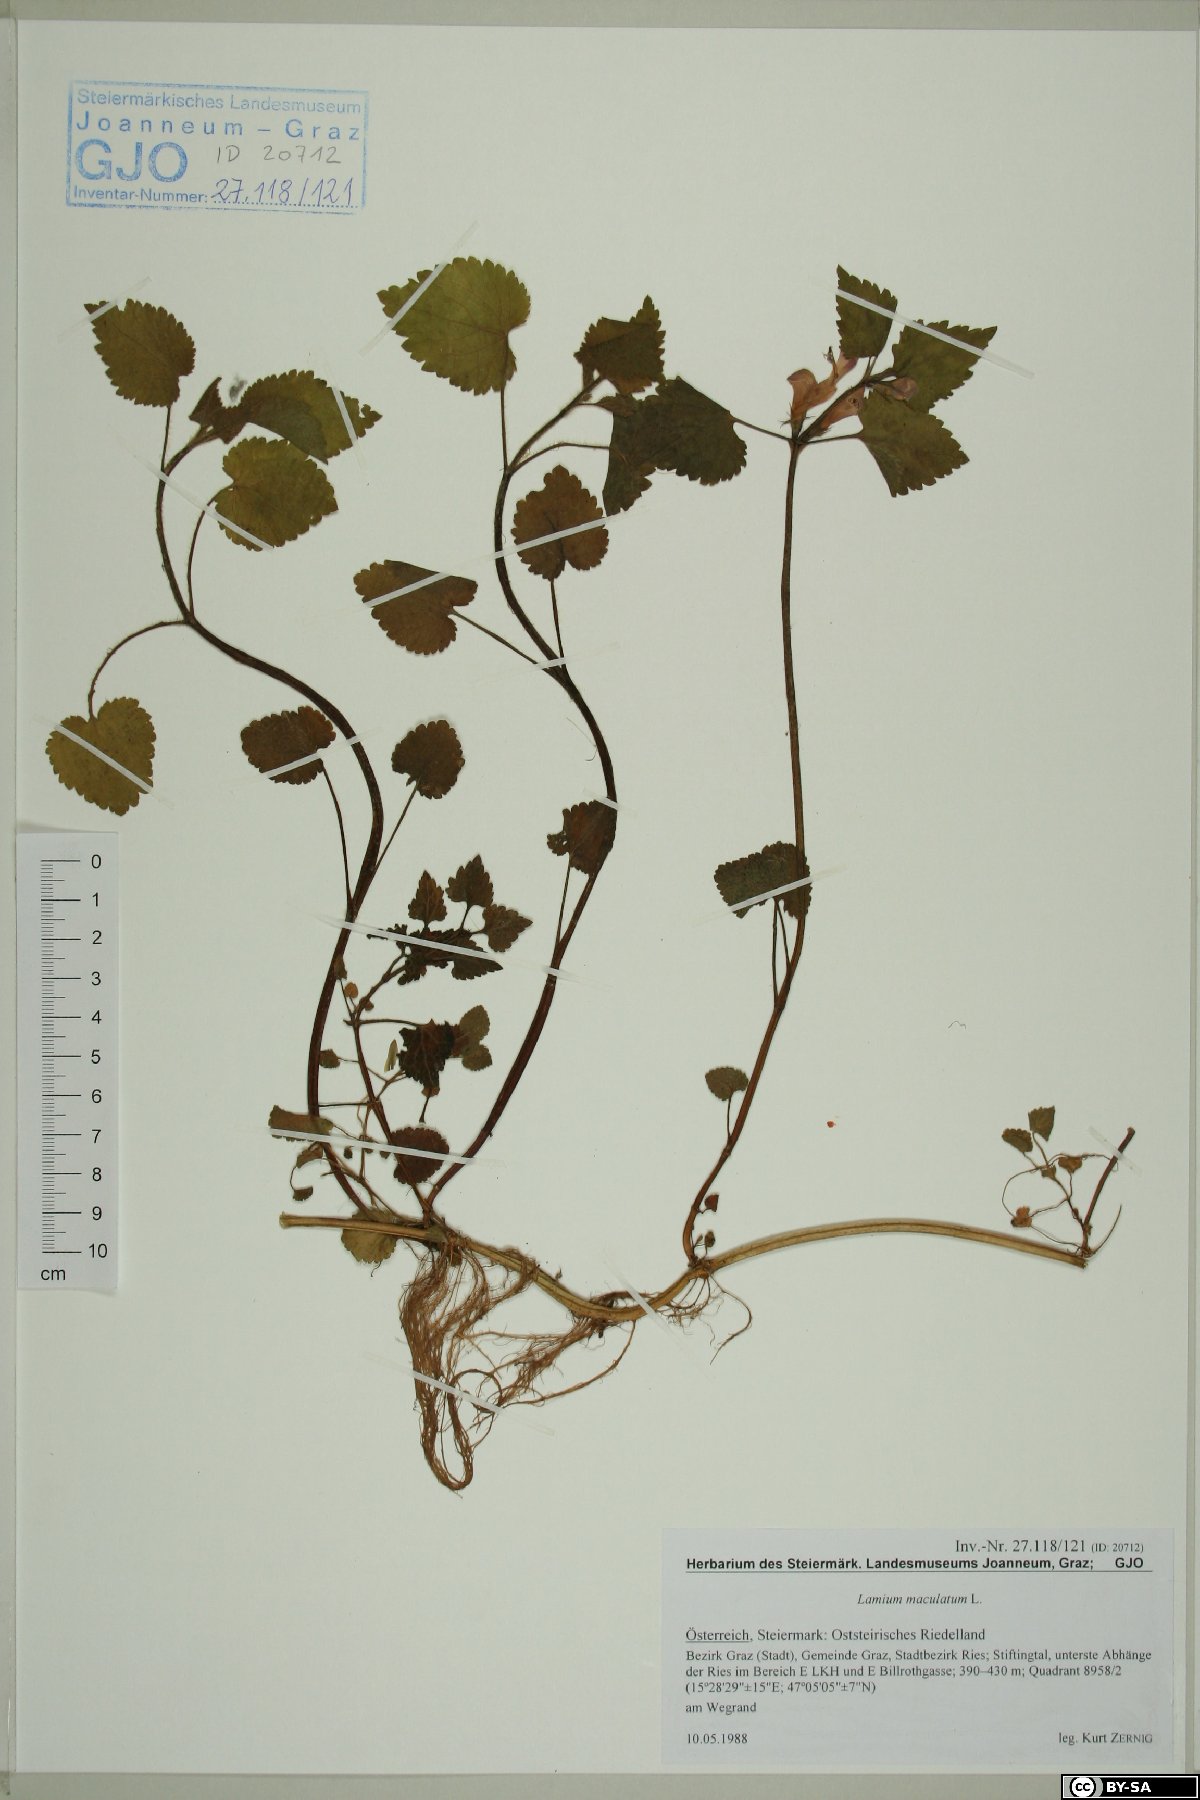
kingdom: Plantae
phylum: Tracheophyta
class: Magnoliopsida
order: Lamiales
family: Lamiaceae
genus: Lamium
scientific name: Lamium maculatum
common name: Spotted dead-nettle
